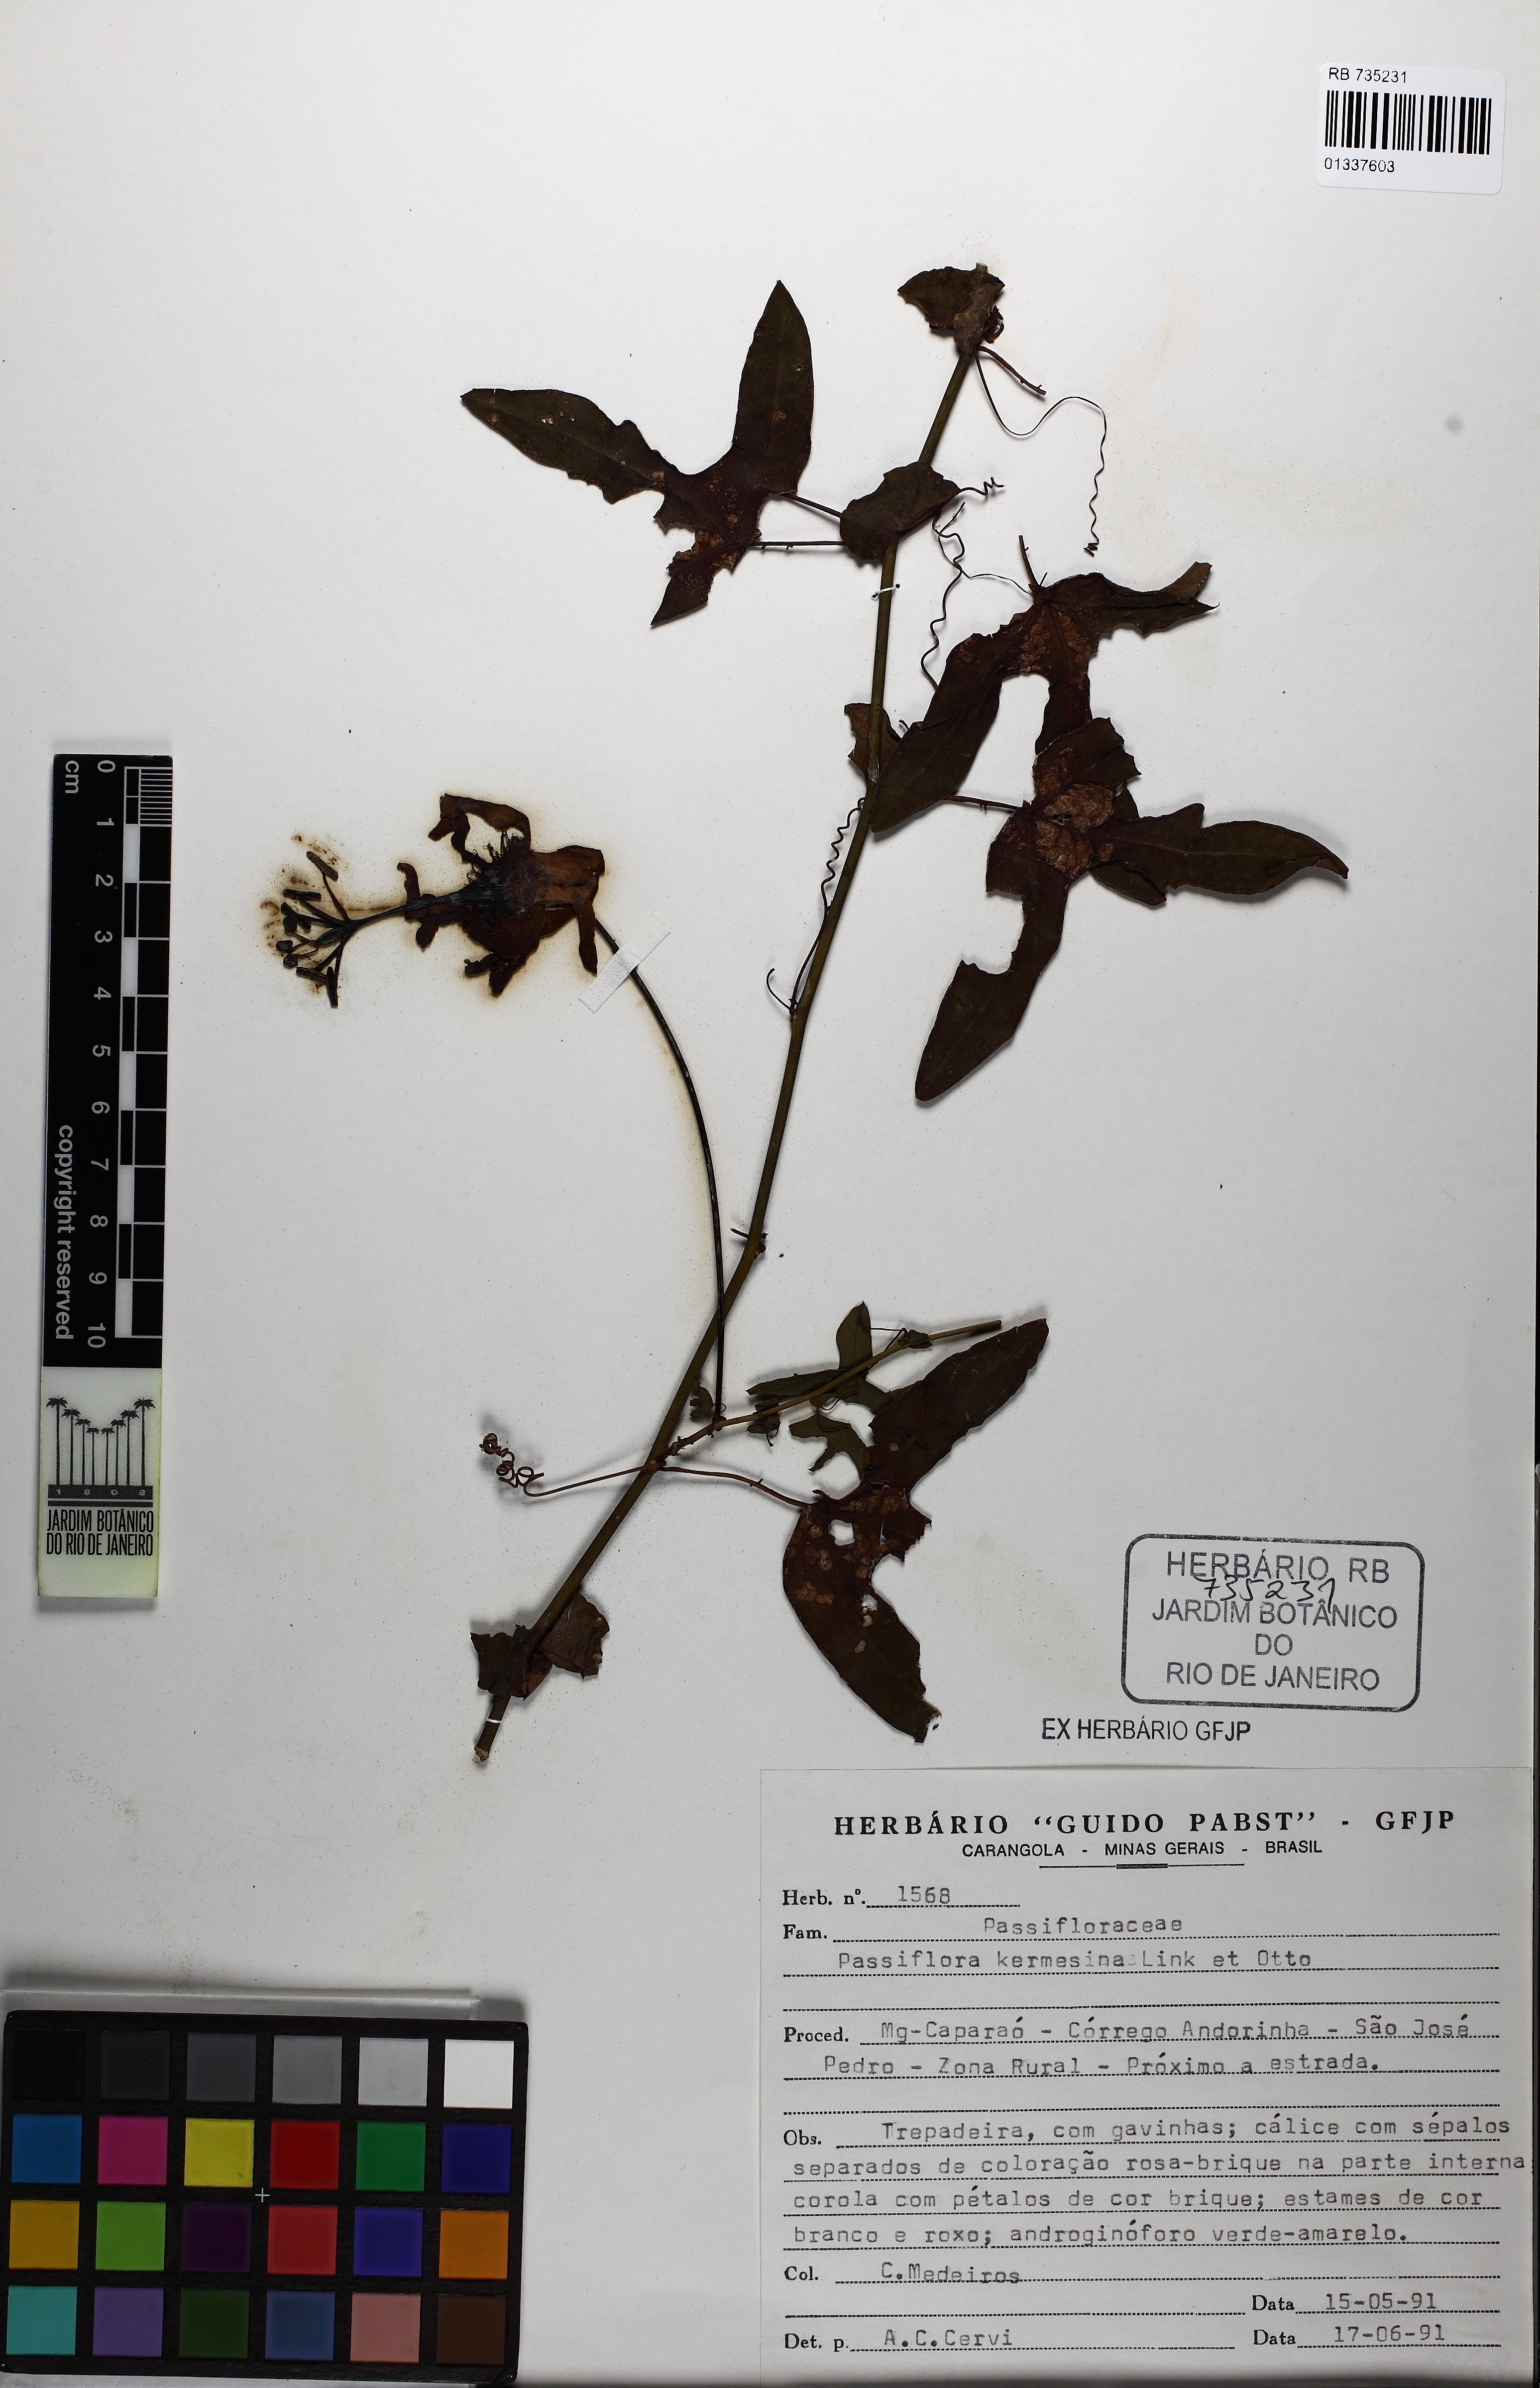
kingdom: Plantae
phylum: Tracheophyta
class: Magnoliopsida
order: Malpighiales
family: Passifloraceae
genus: Passiflora
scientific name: Passiflora kermesina
